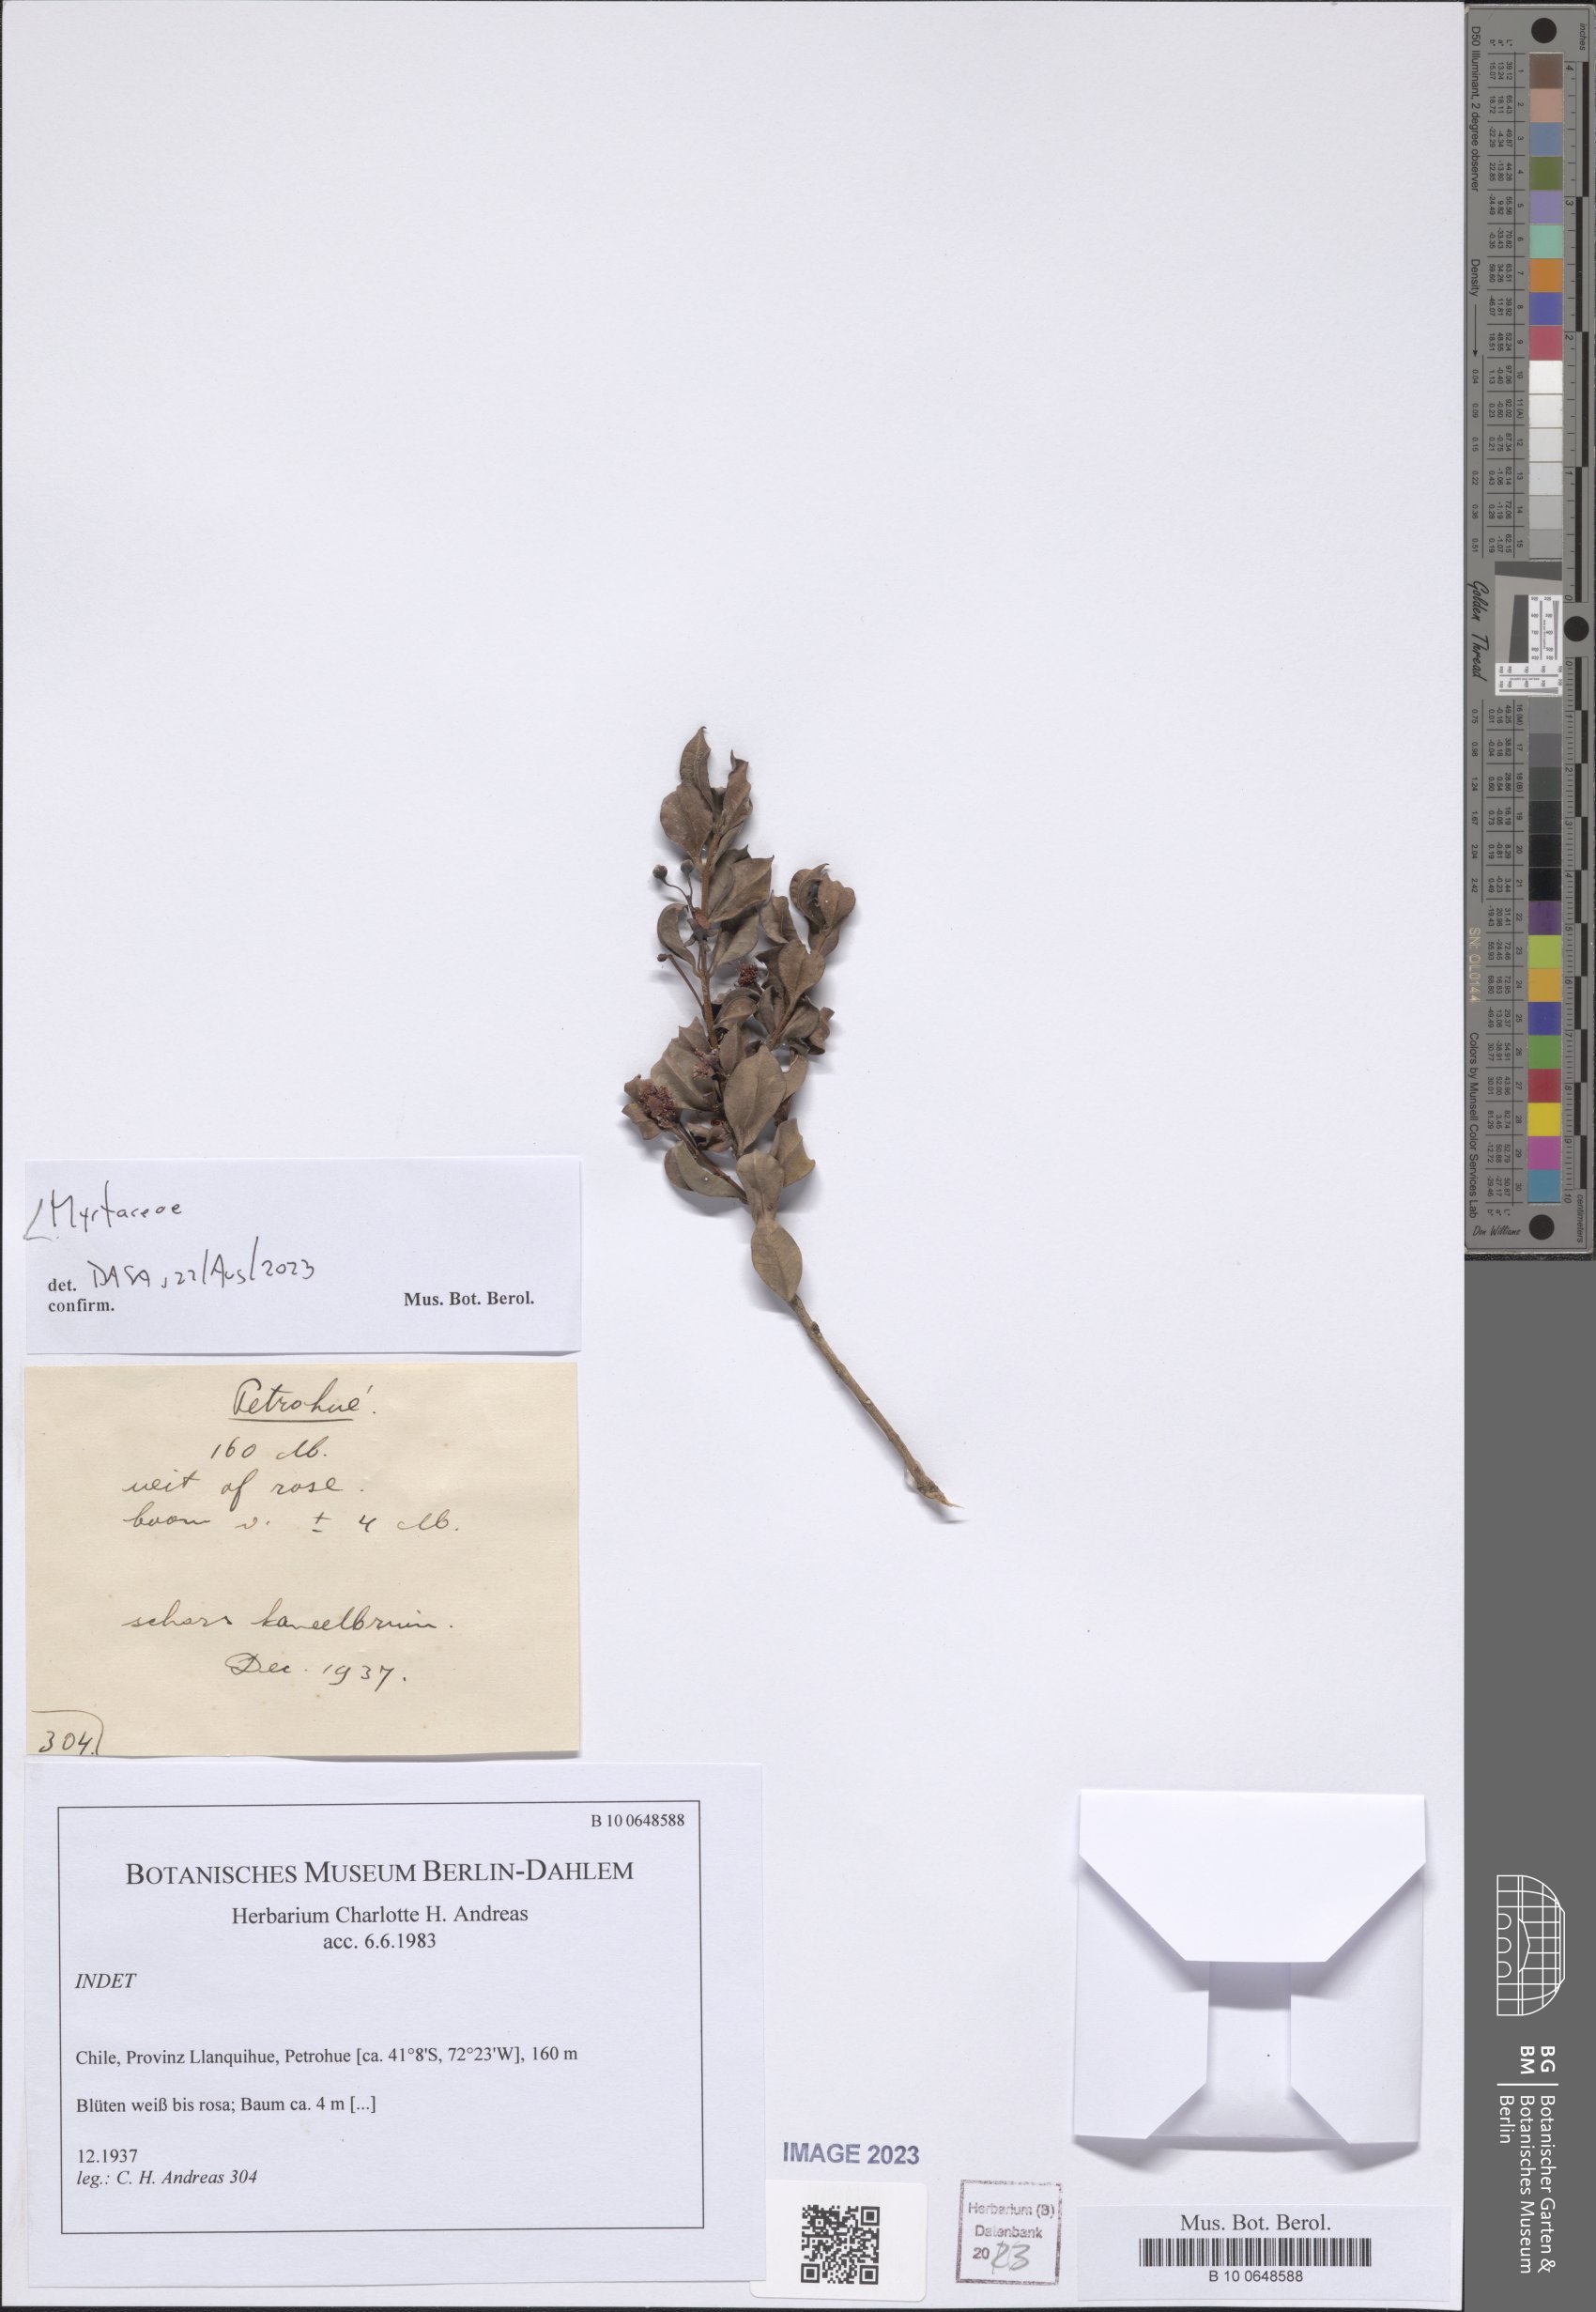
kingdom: Plantae
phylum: Tracheophyta
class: Magnoliopsida
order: Myrtales
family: Myrtaceae
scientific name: Myrtaceae
